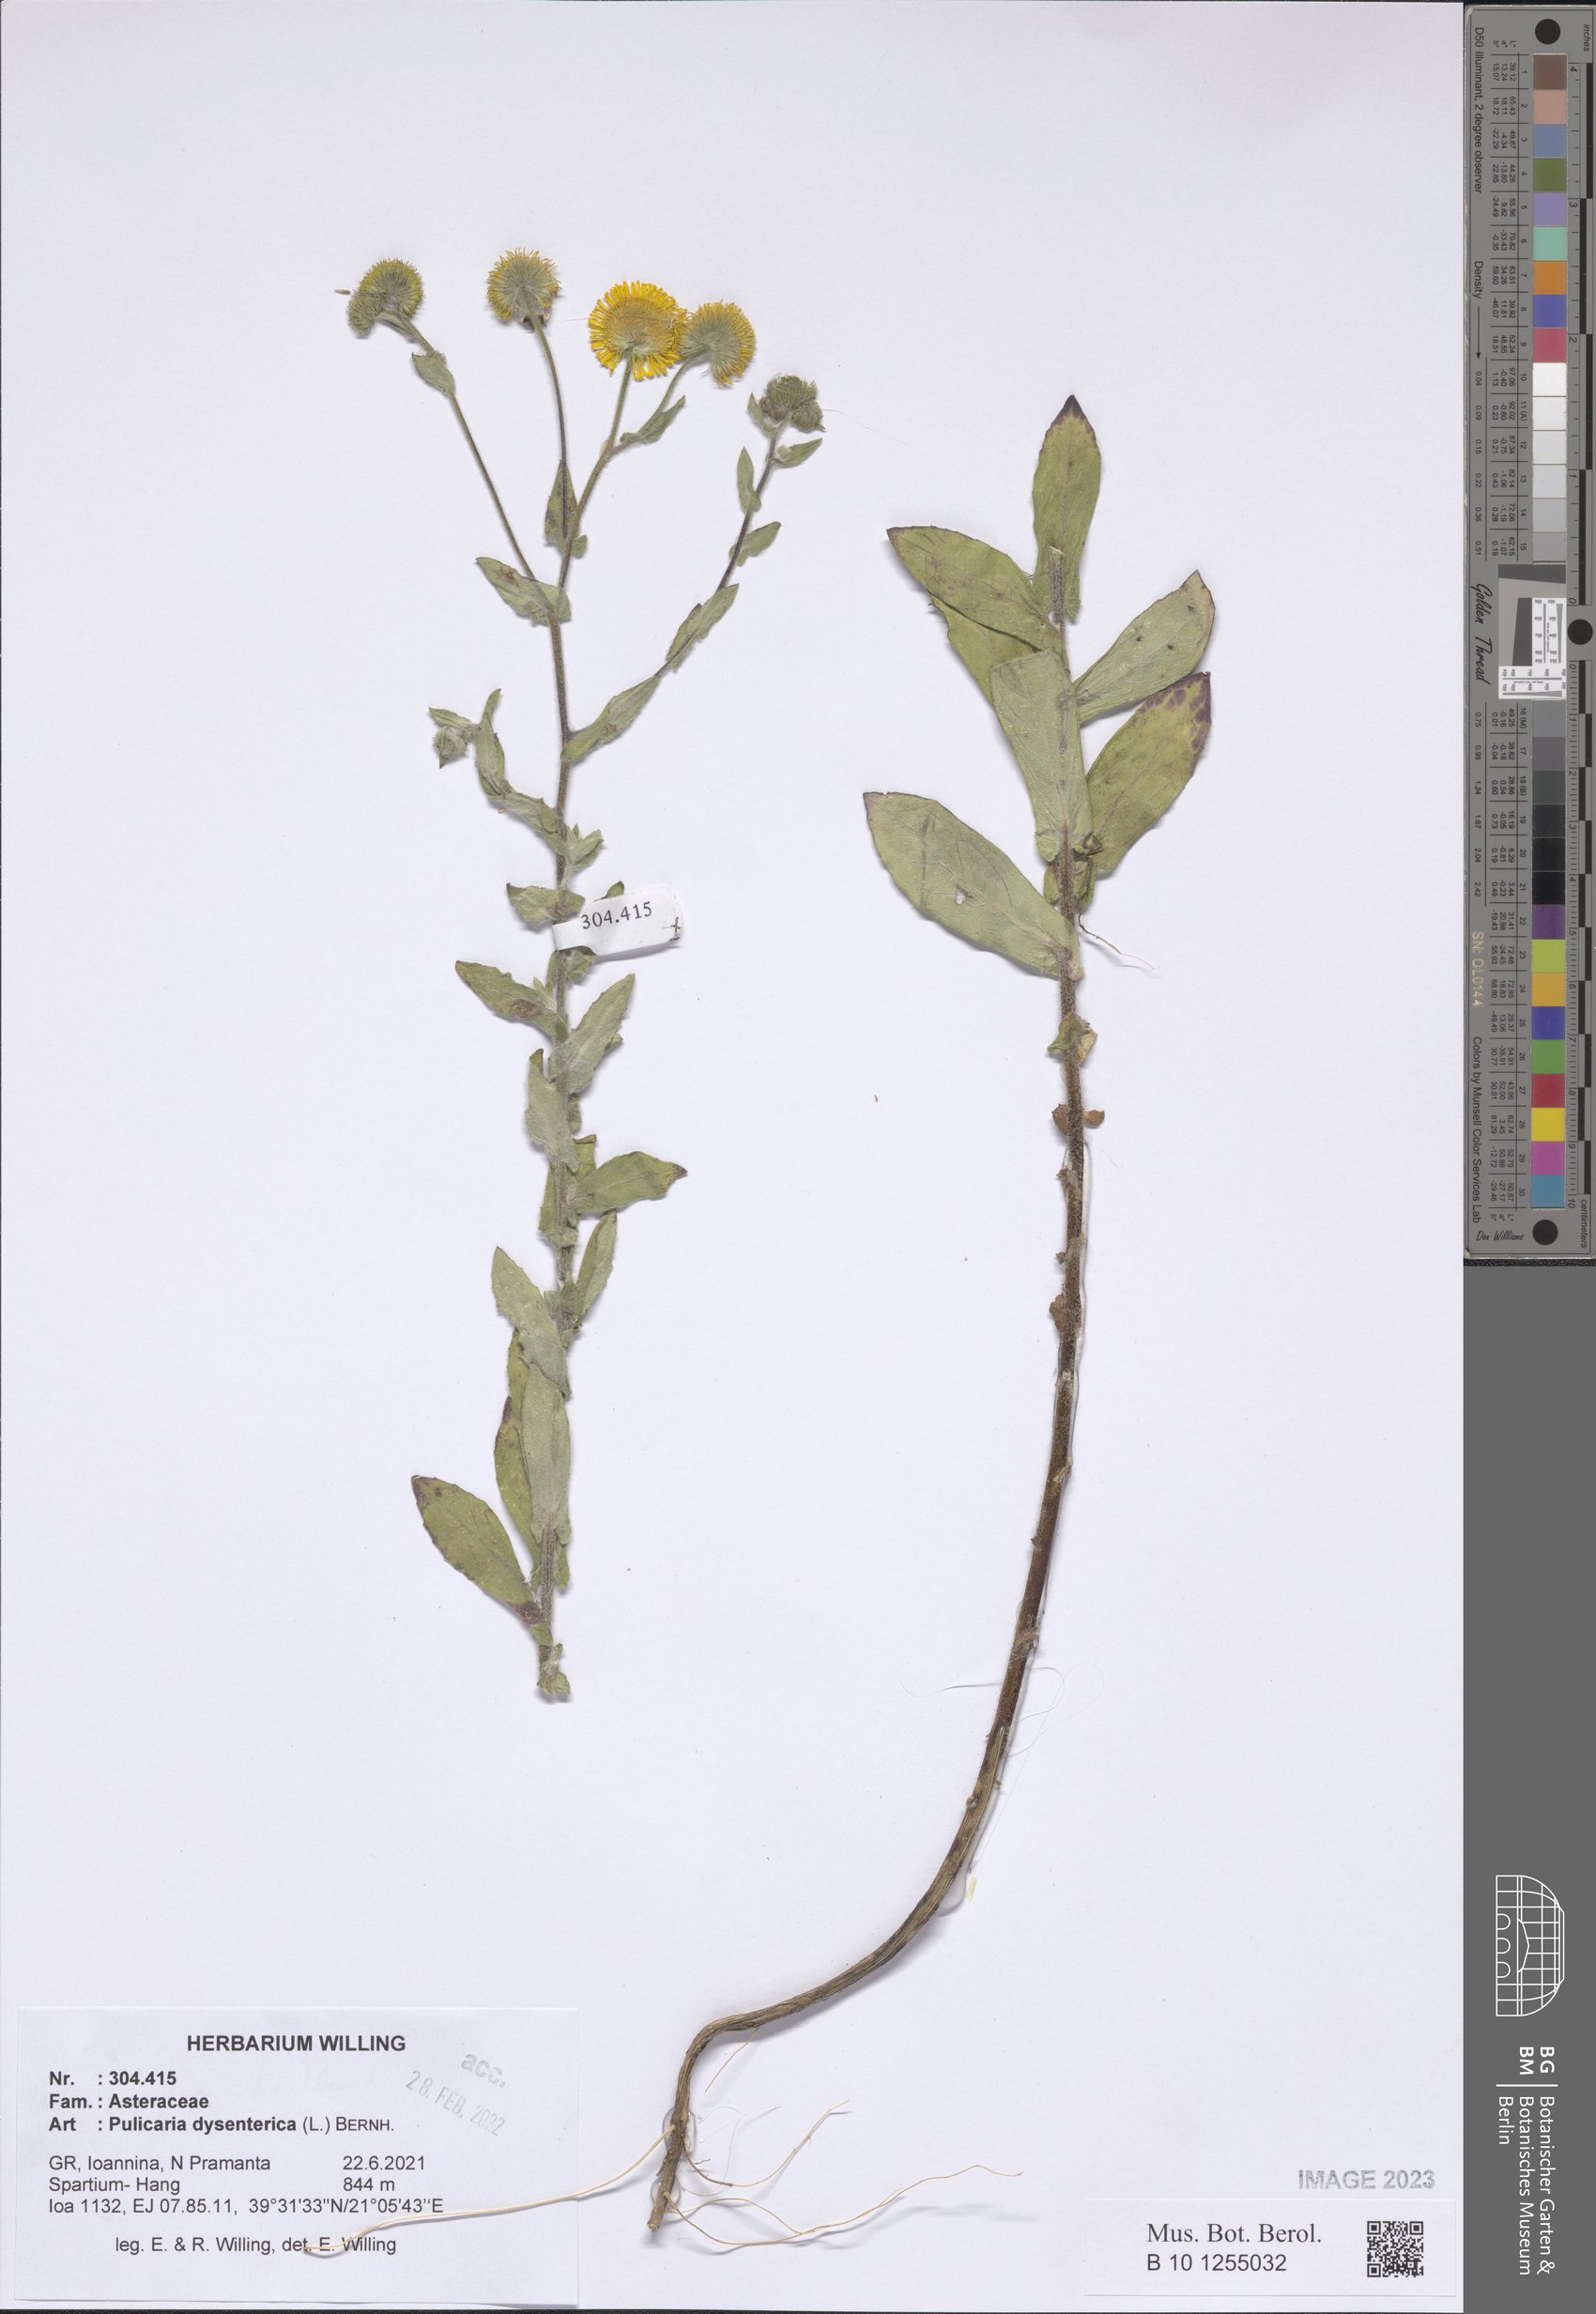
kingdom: Plantae
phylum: Tracheophyta
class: Magnoliopsida
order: Asterales
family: Asteraceae
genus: Pulicaria
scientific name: Pulicaria dysenterica
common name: Common fleabane
